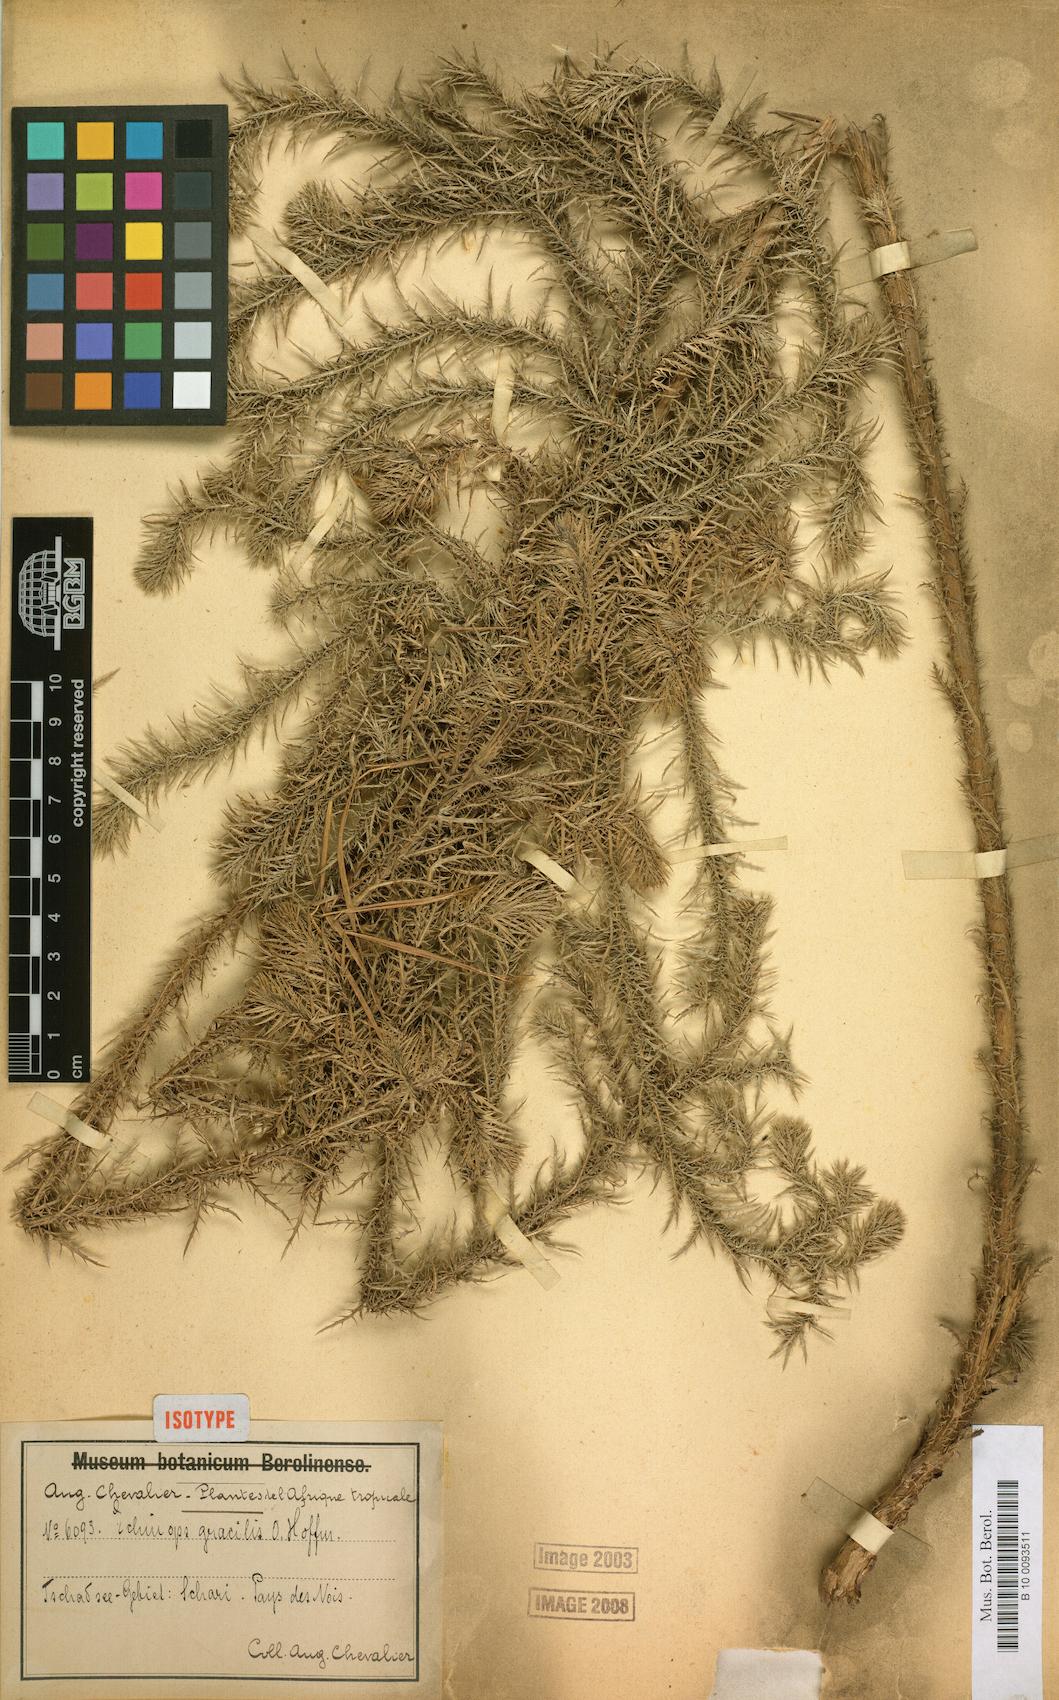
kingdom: Plantae
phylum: Tracheophyta
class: Magnoliopsida
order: Asterales
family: Asteraceae
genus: Echinops
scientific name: Echinops gracilis
